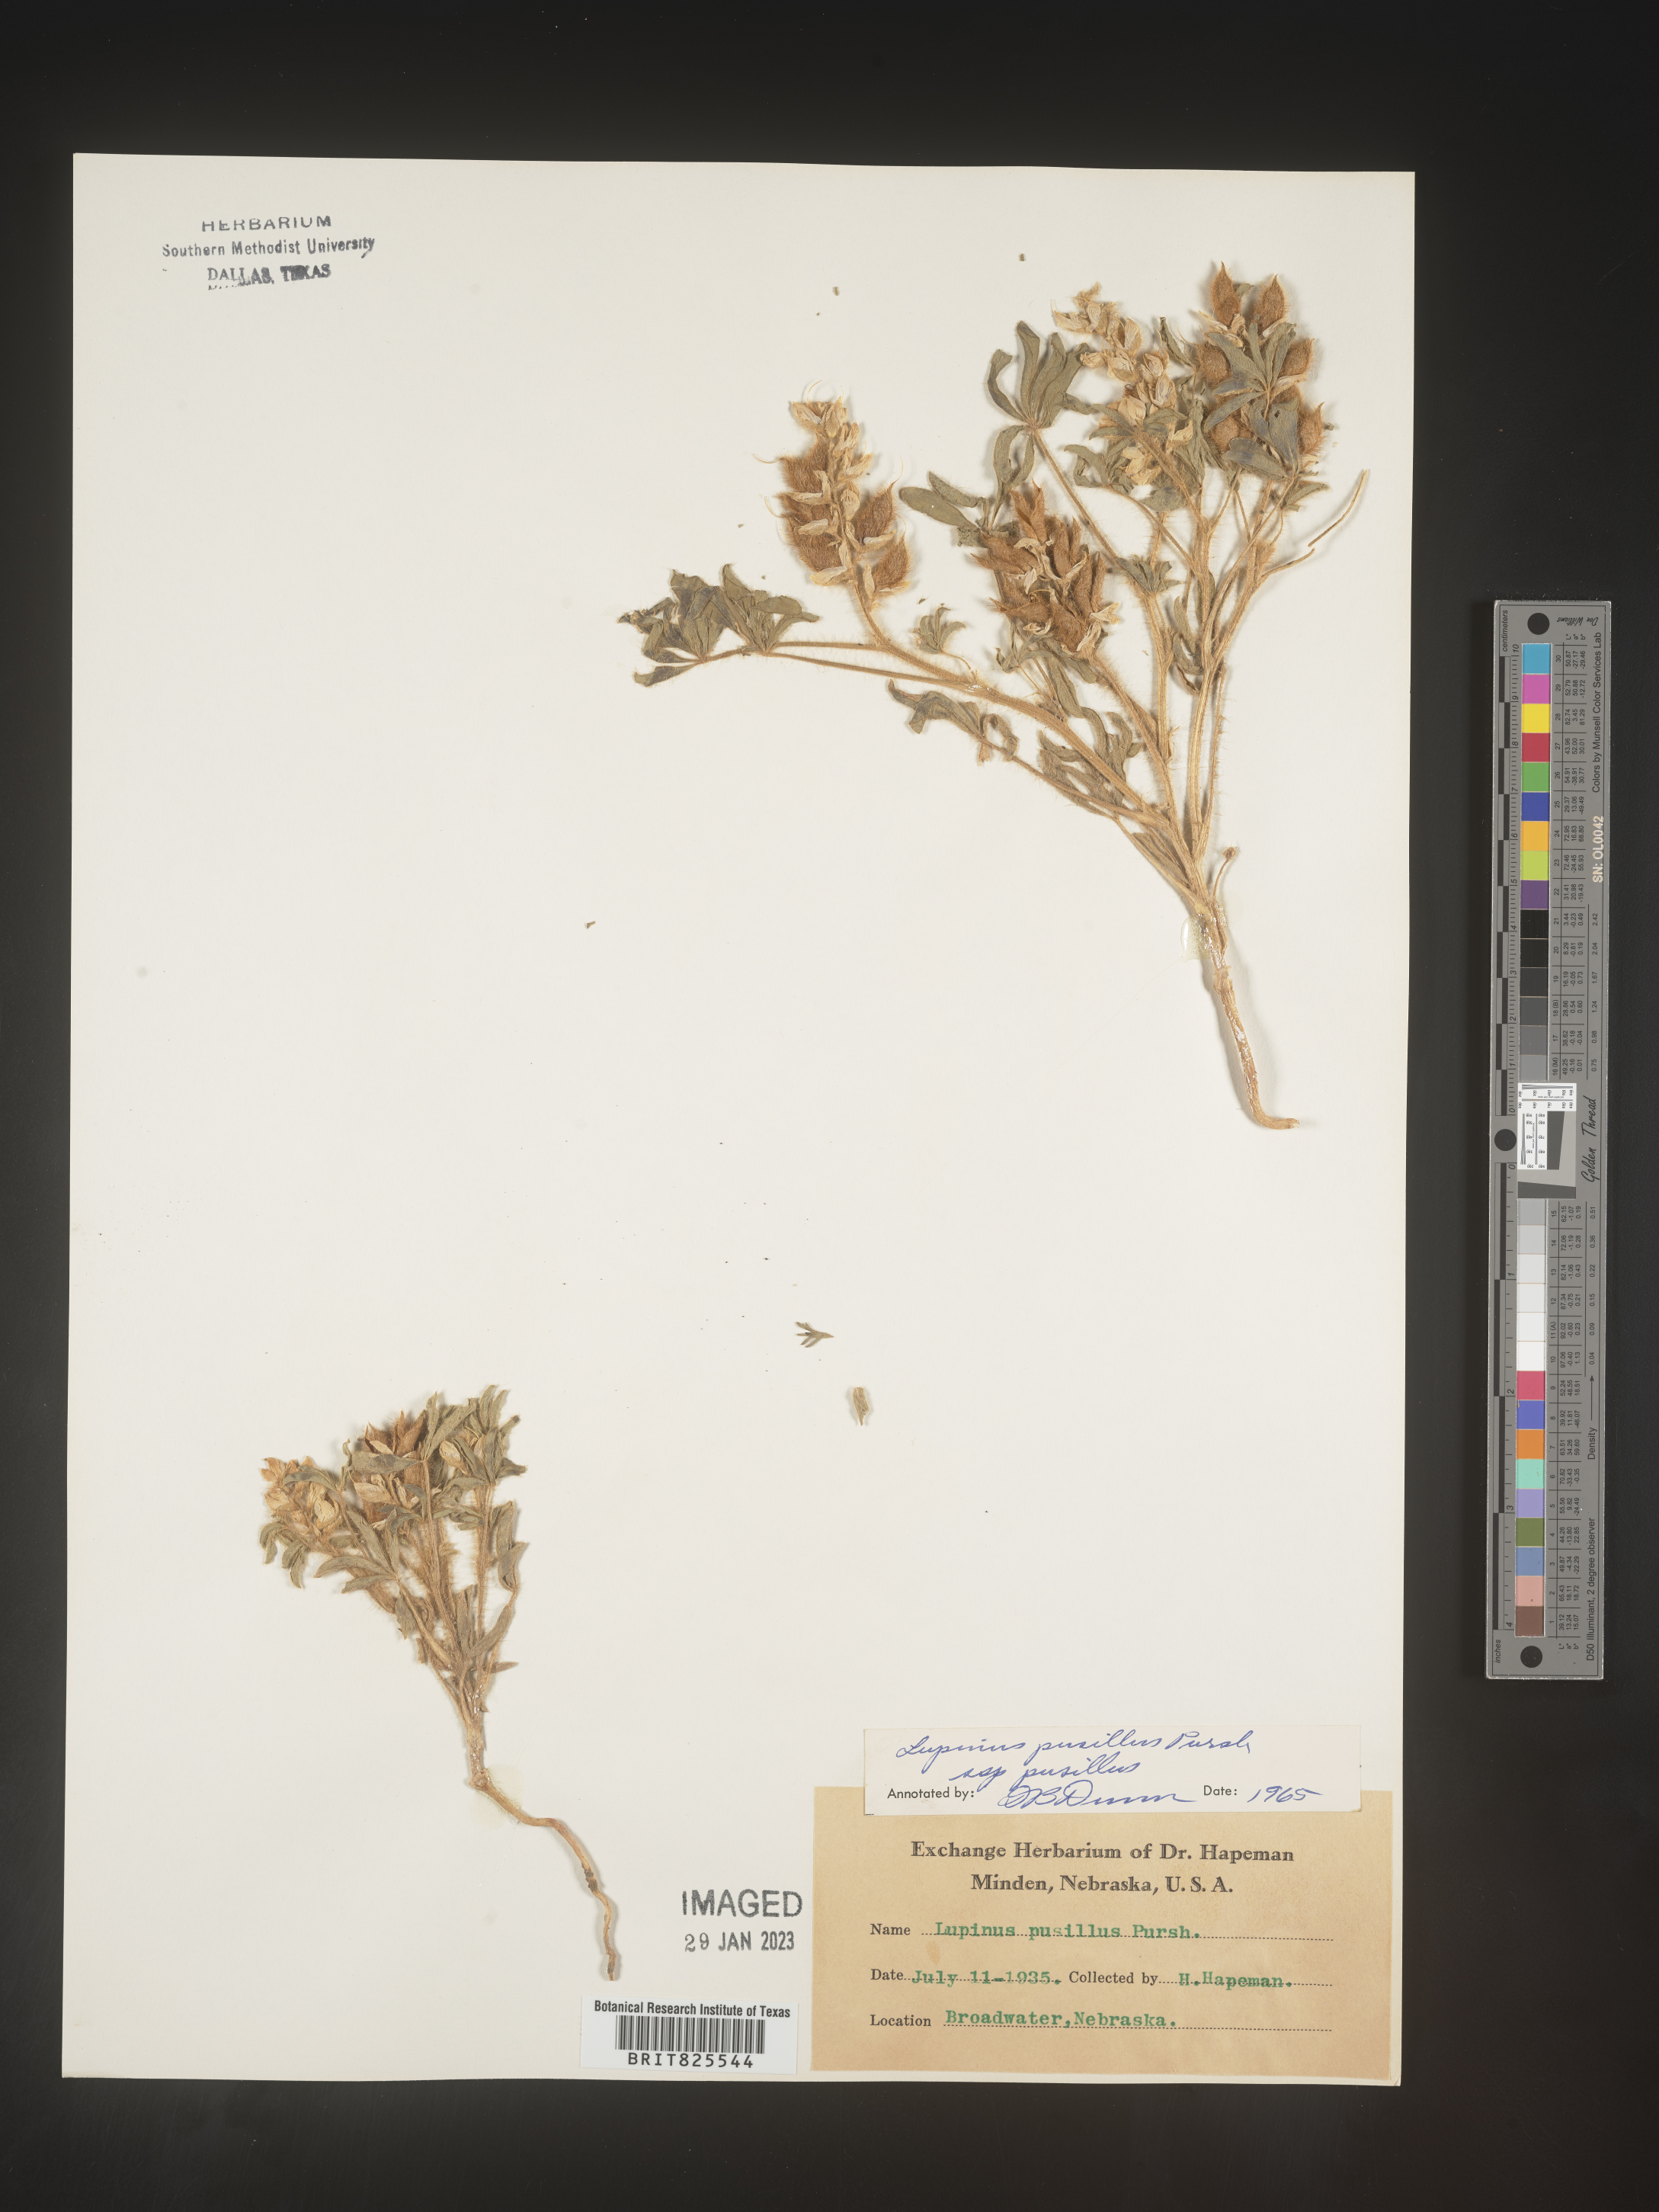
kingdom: Plantae
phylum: Tracheophyta
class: Magnoliopsida
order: Fabales
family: Fabaceae
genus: Lupinus
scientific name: Lupinus
